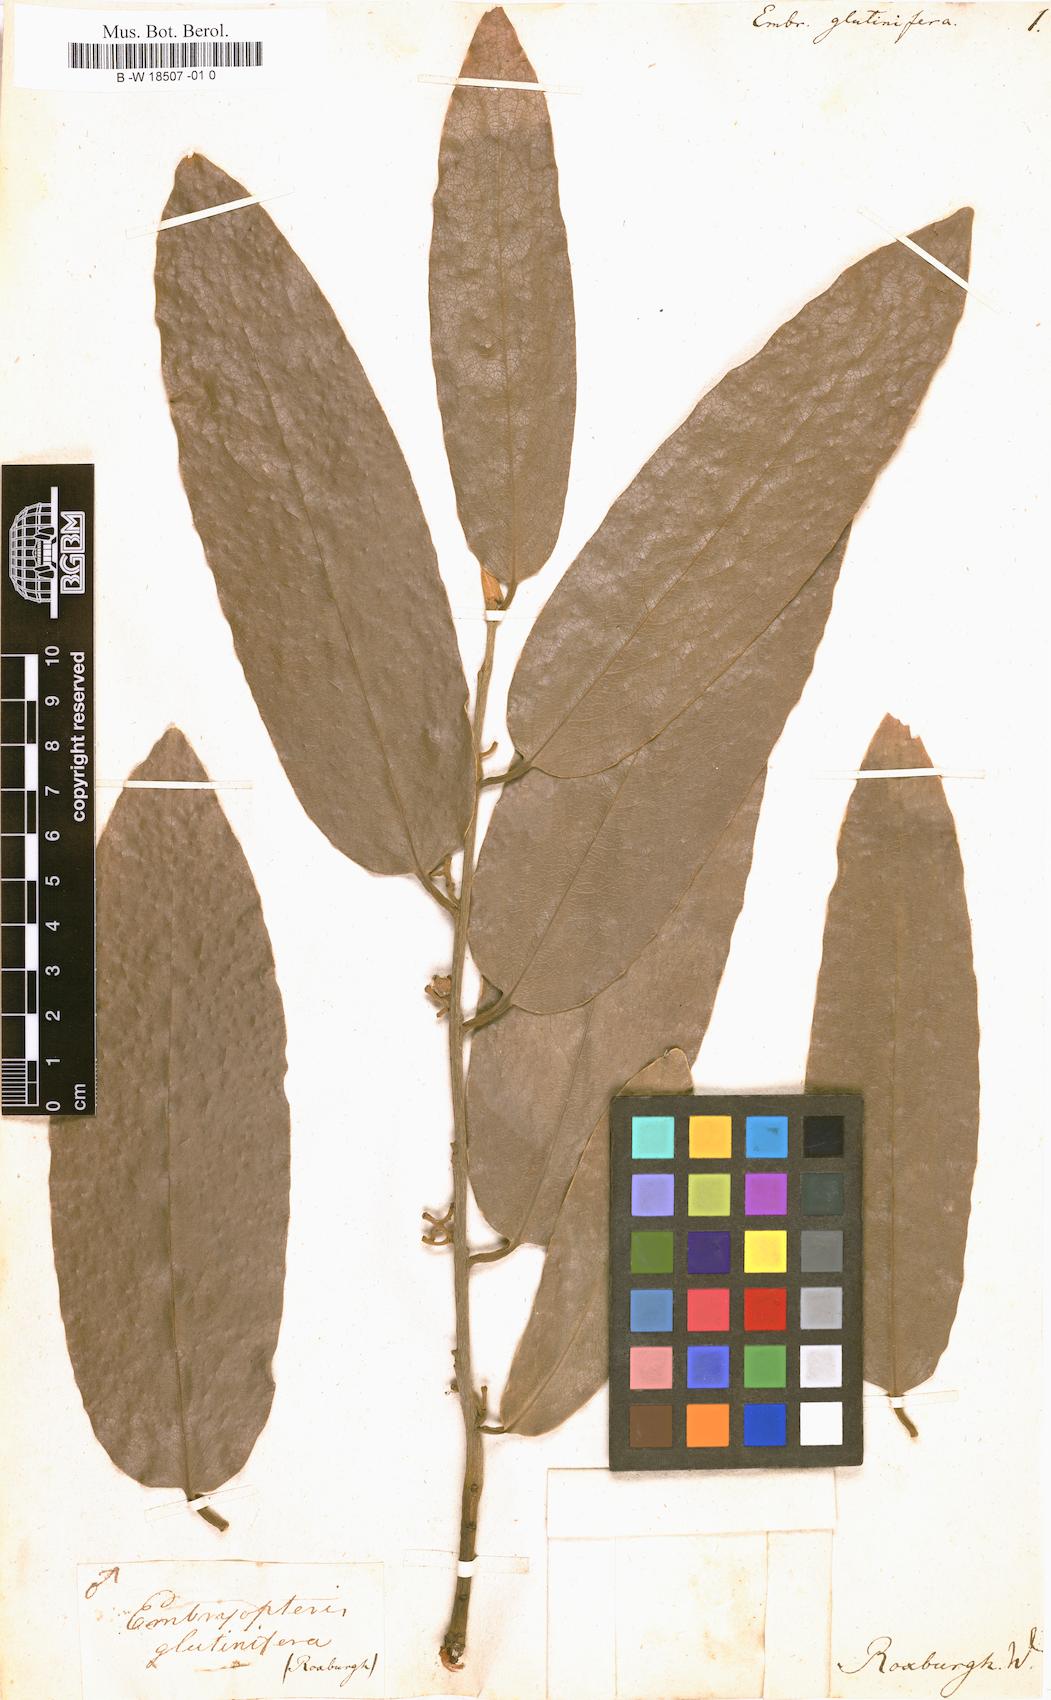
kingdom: Plantae
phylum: Tracheophyta
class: Magnoliopsida
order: Ericales
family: Ebenaceae
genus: Diospyros
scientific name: Diospyros malabarica
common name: Mountain ebony
